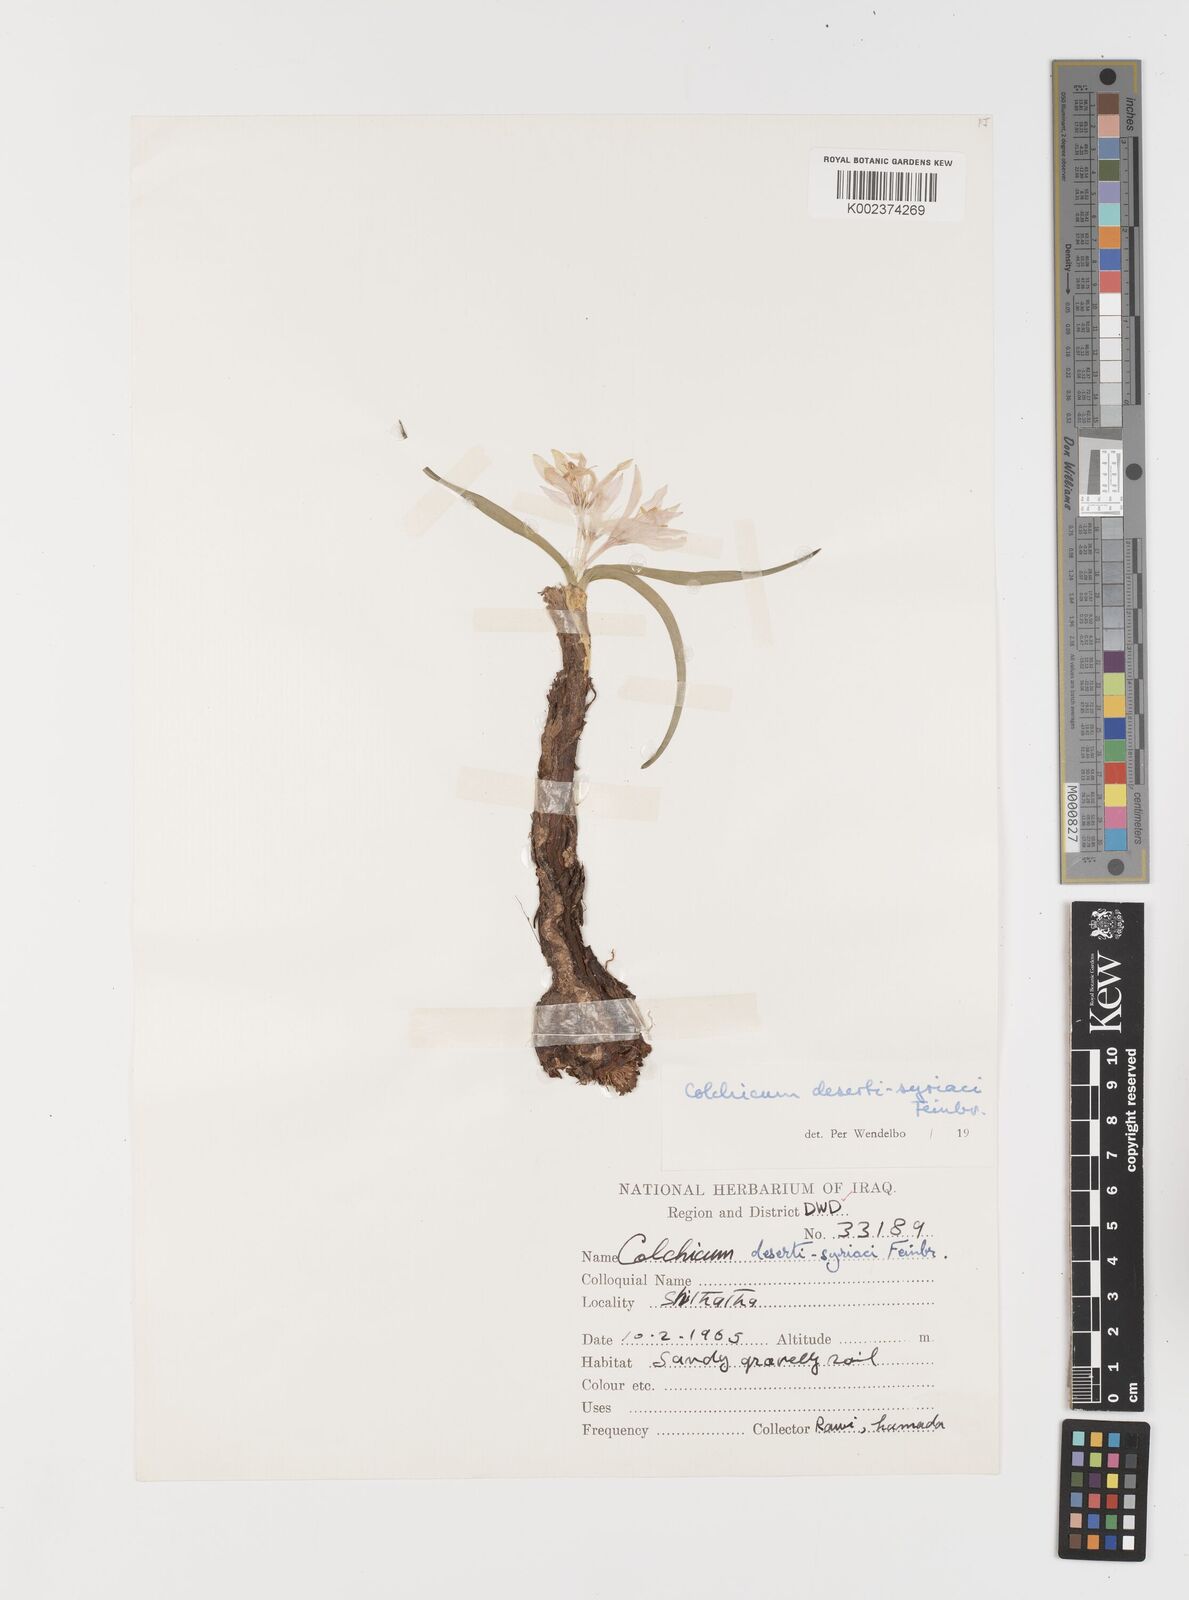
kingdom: Plantae
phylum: Tracheophyta
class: Liliopsida
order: Liliales
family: Colchicaceae
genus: Colchicum
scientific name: Colchicum schimperi
